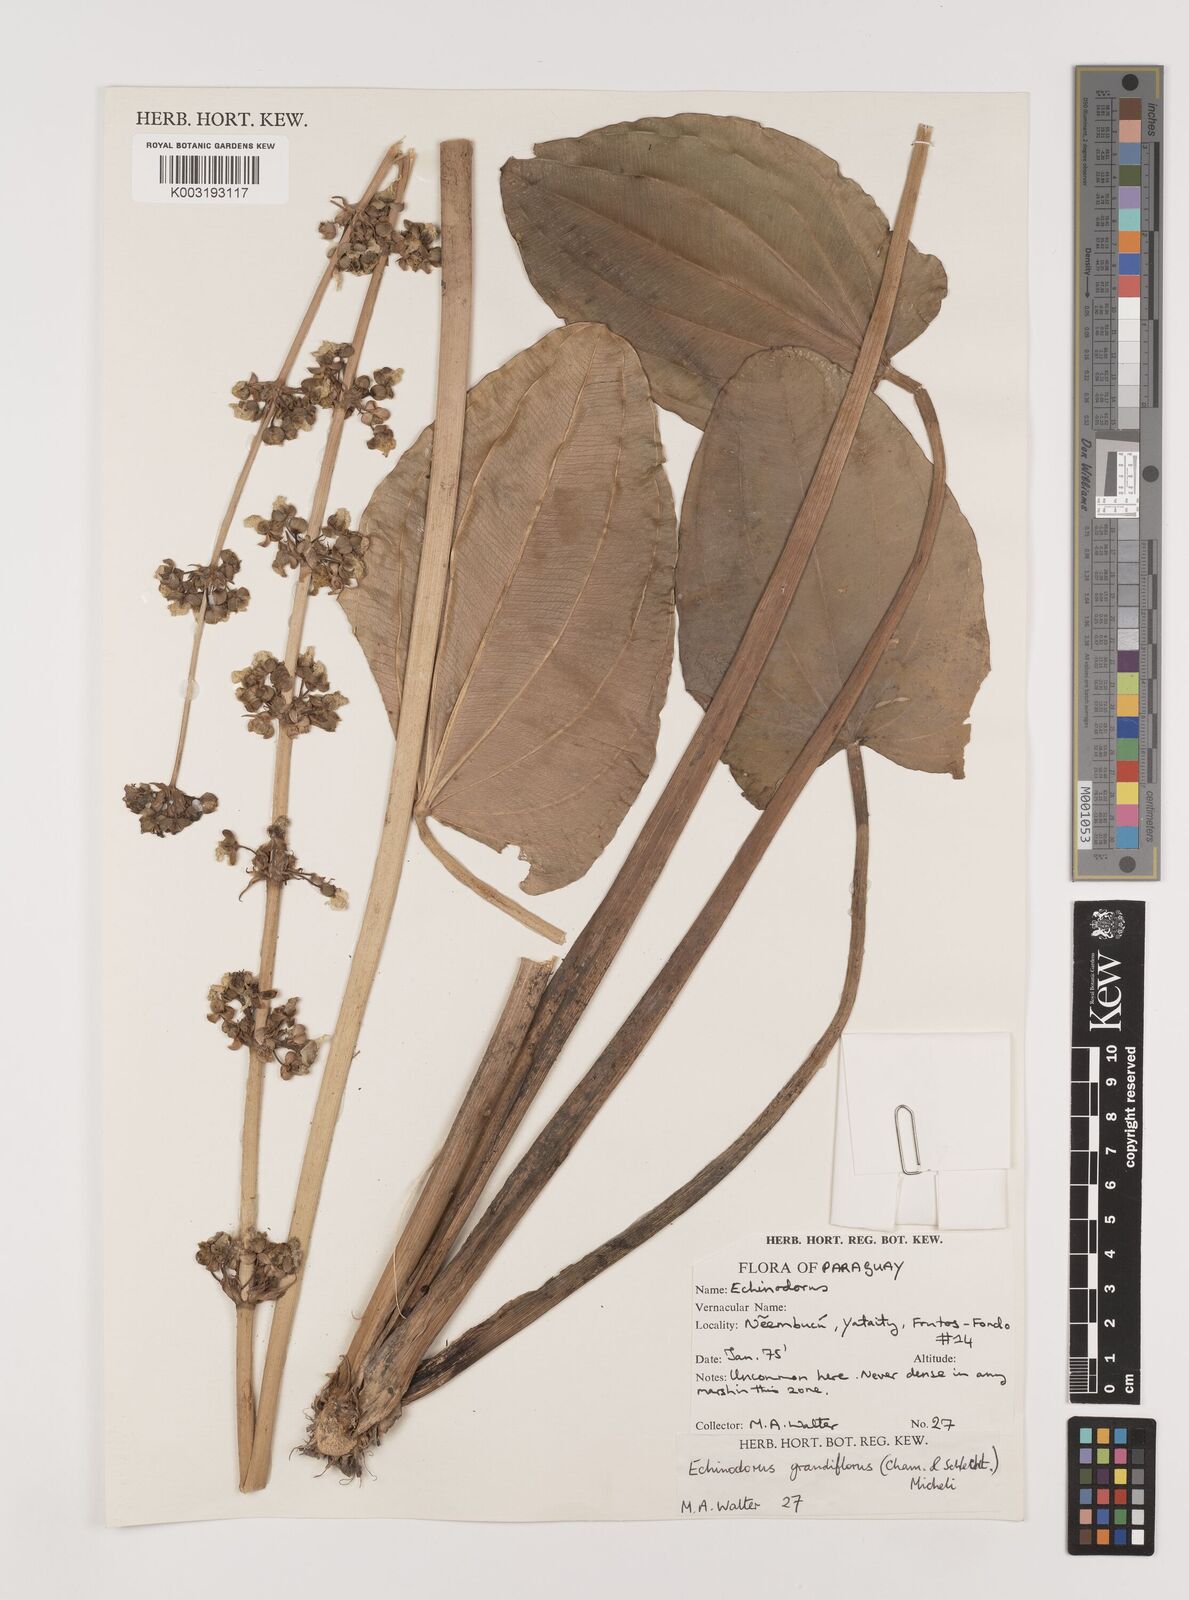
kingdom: Plantae
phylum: Tracheophyta
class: Liliopsida
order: Alismatales
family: Alismataceae
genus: Aquarius
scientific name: Aquarius grandiflorus
